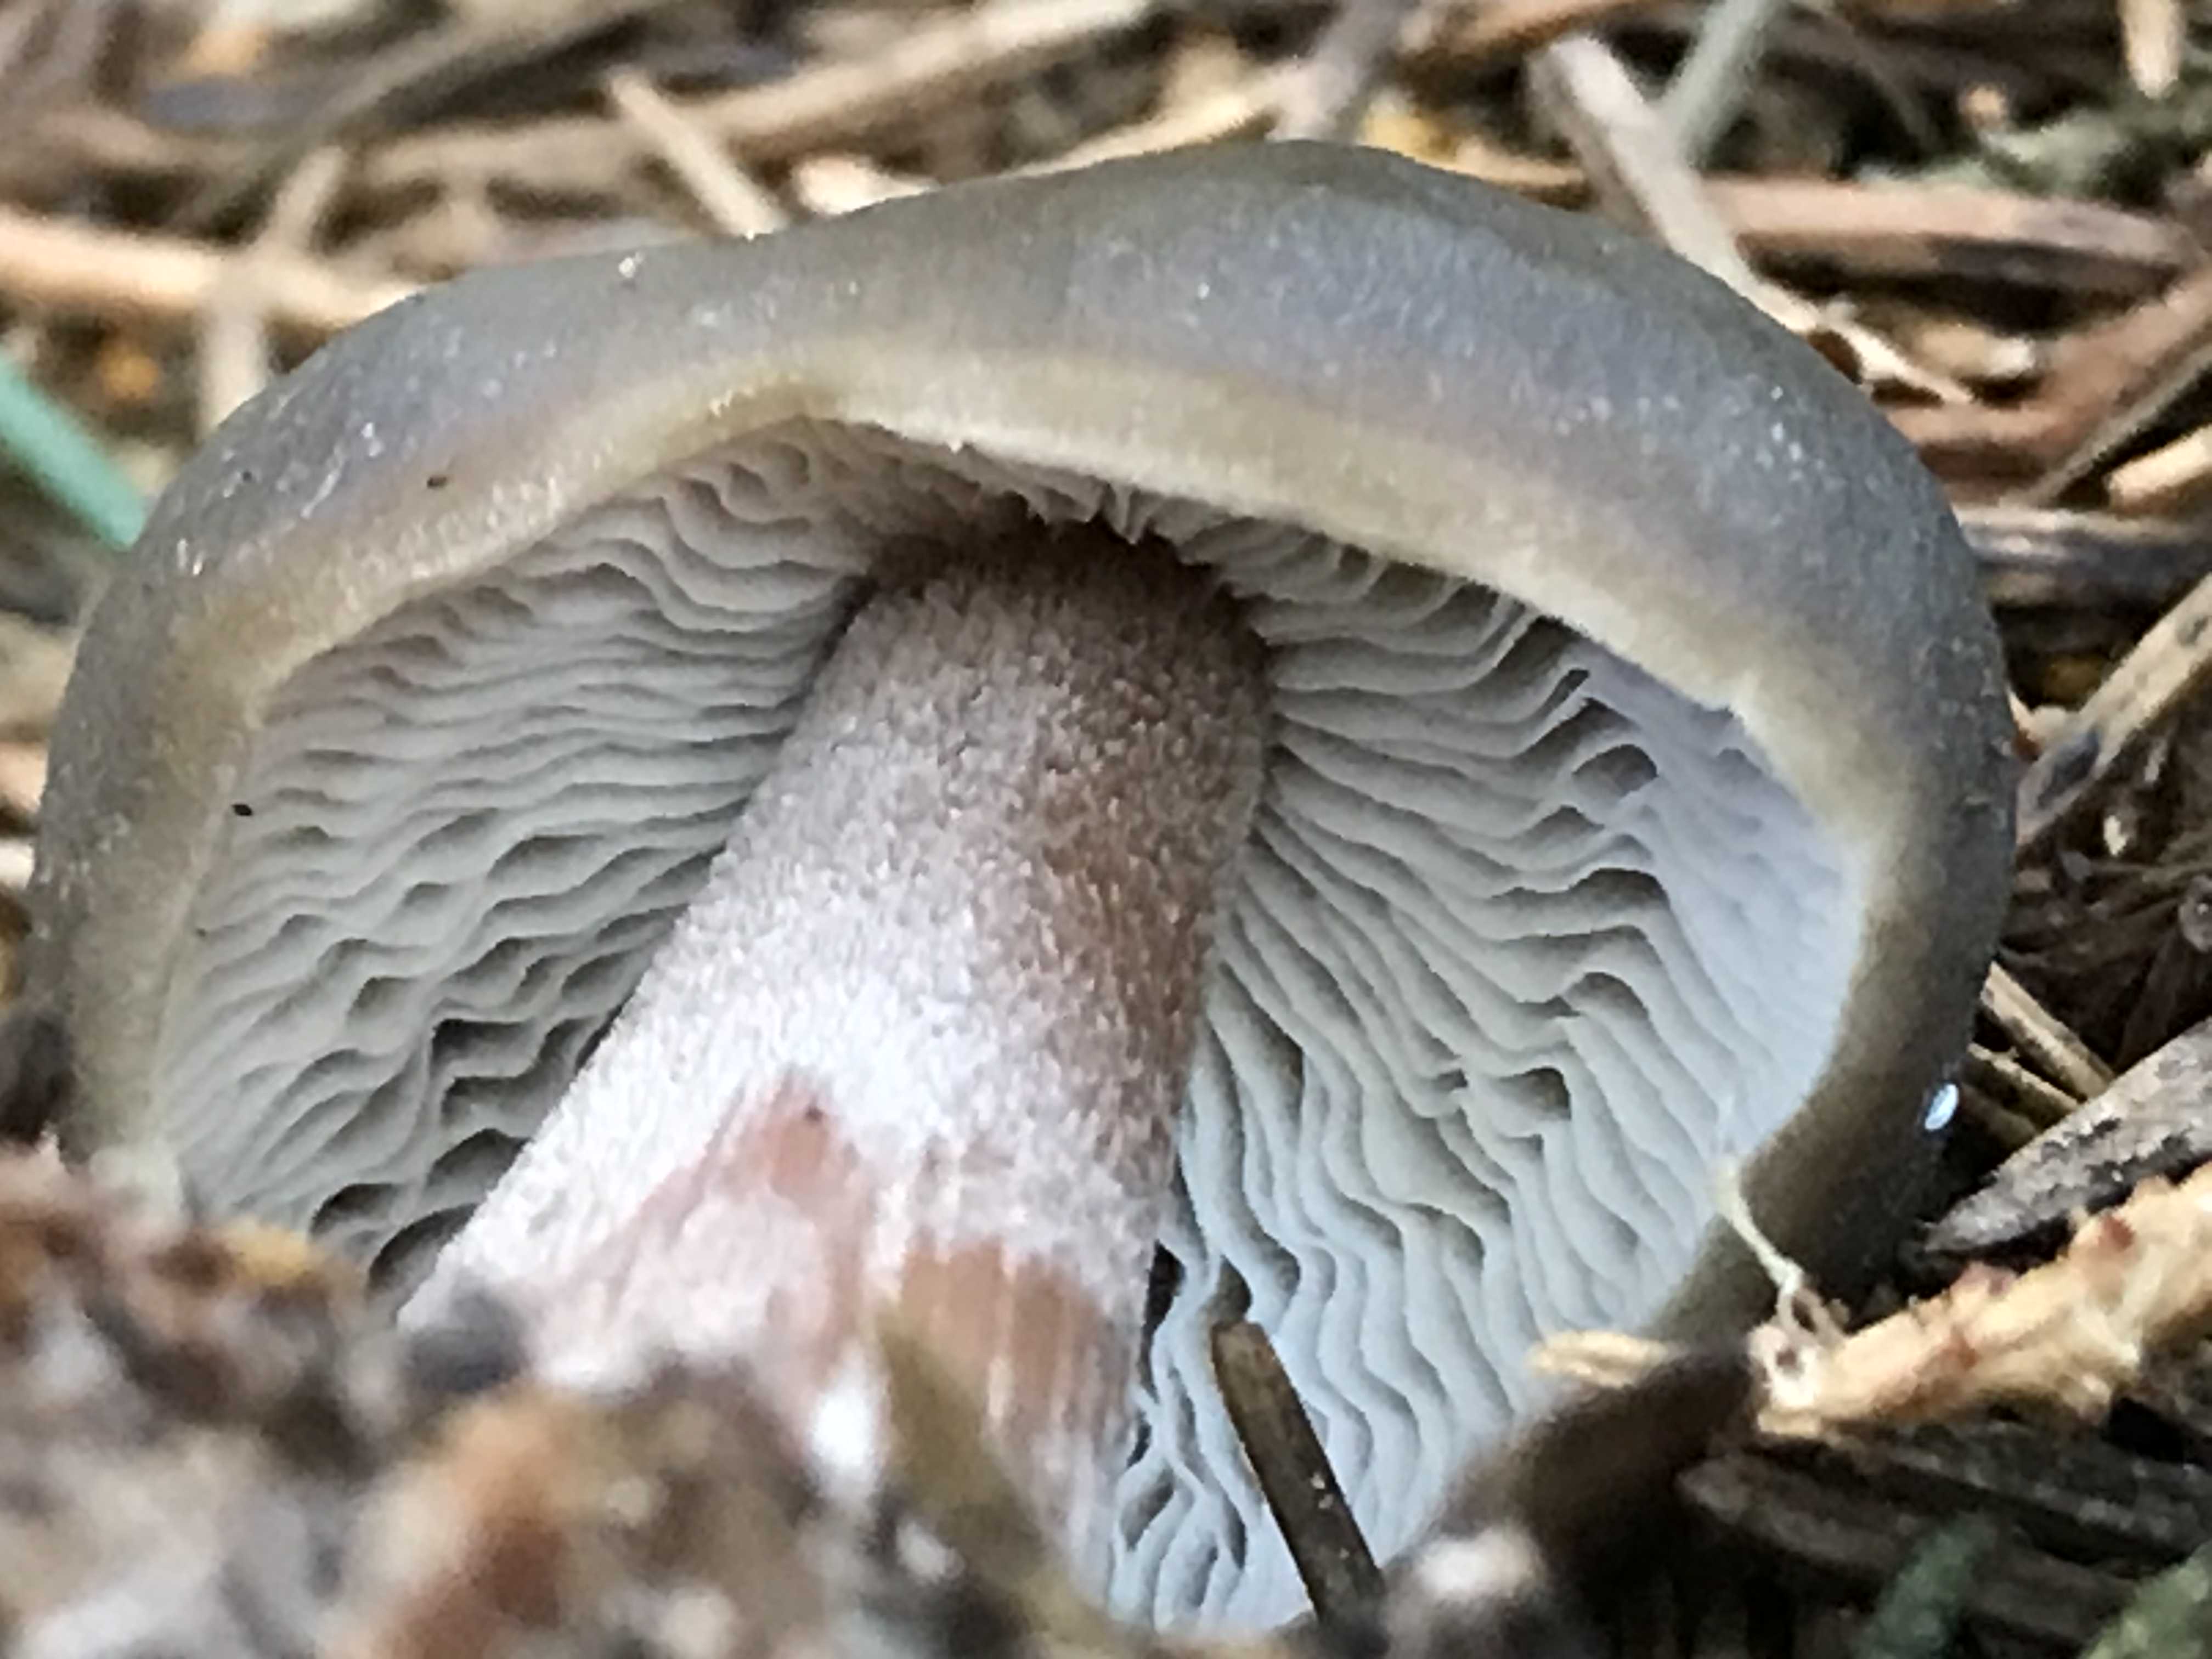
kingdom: Fungi
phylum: Basidiomycota
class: Agaricomycetes
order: Agaricales
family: Omphalotaceae
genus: Rhodocollybia
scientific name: Rhodocollybia
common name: fladhat
